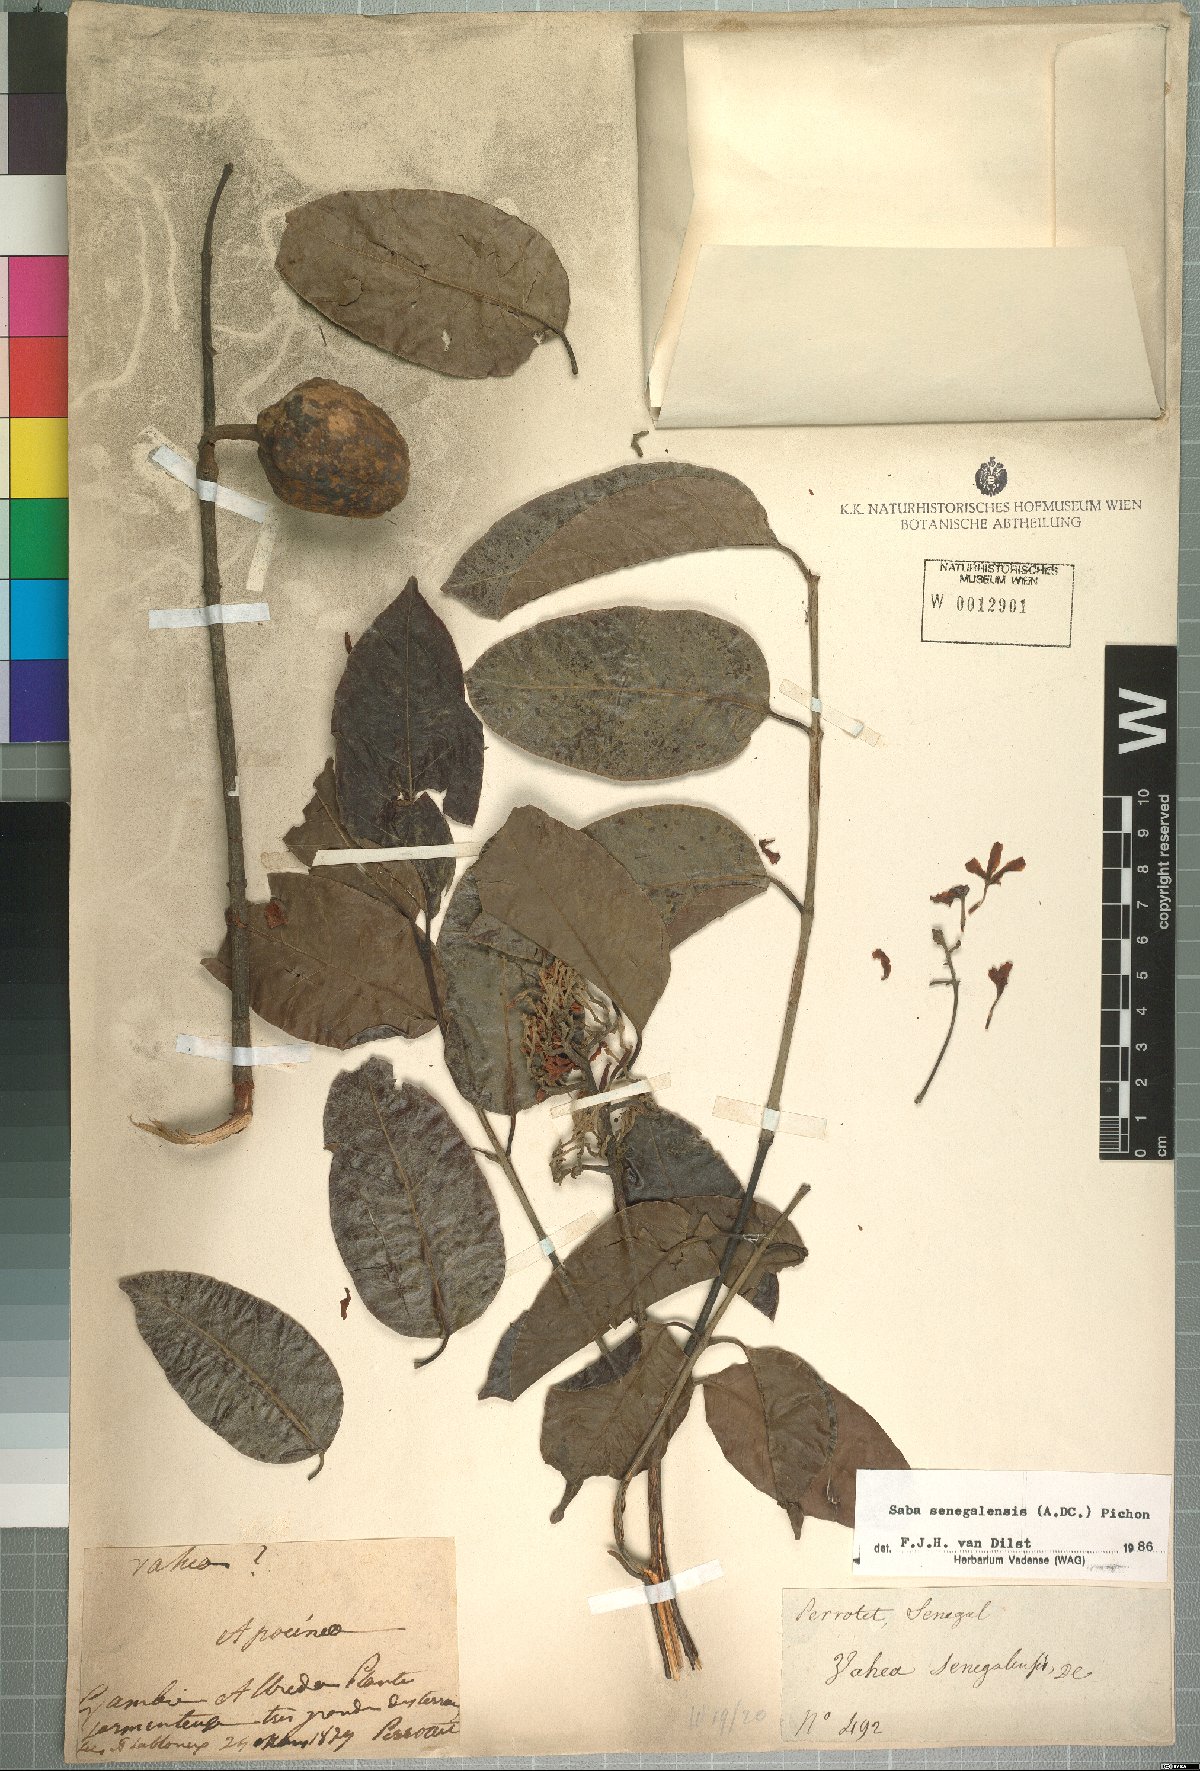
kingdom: Plantae
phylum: Tracheophyta
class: Magnoliopsida
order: Gentianales
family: Apocynaceae
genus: Saba
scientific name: Saba senegalensis
